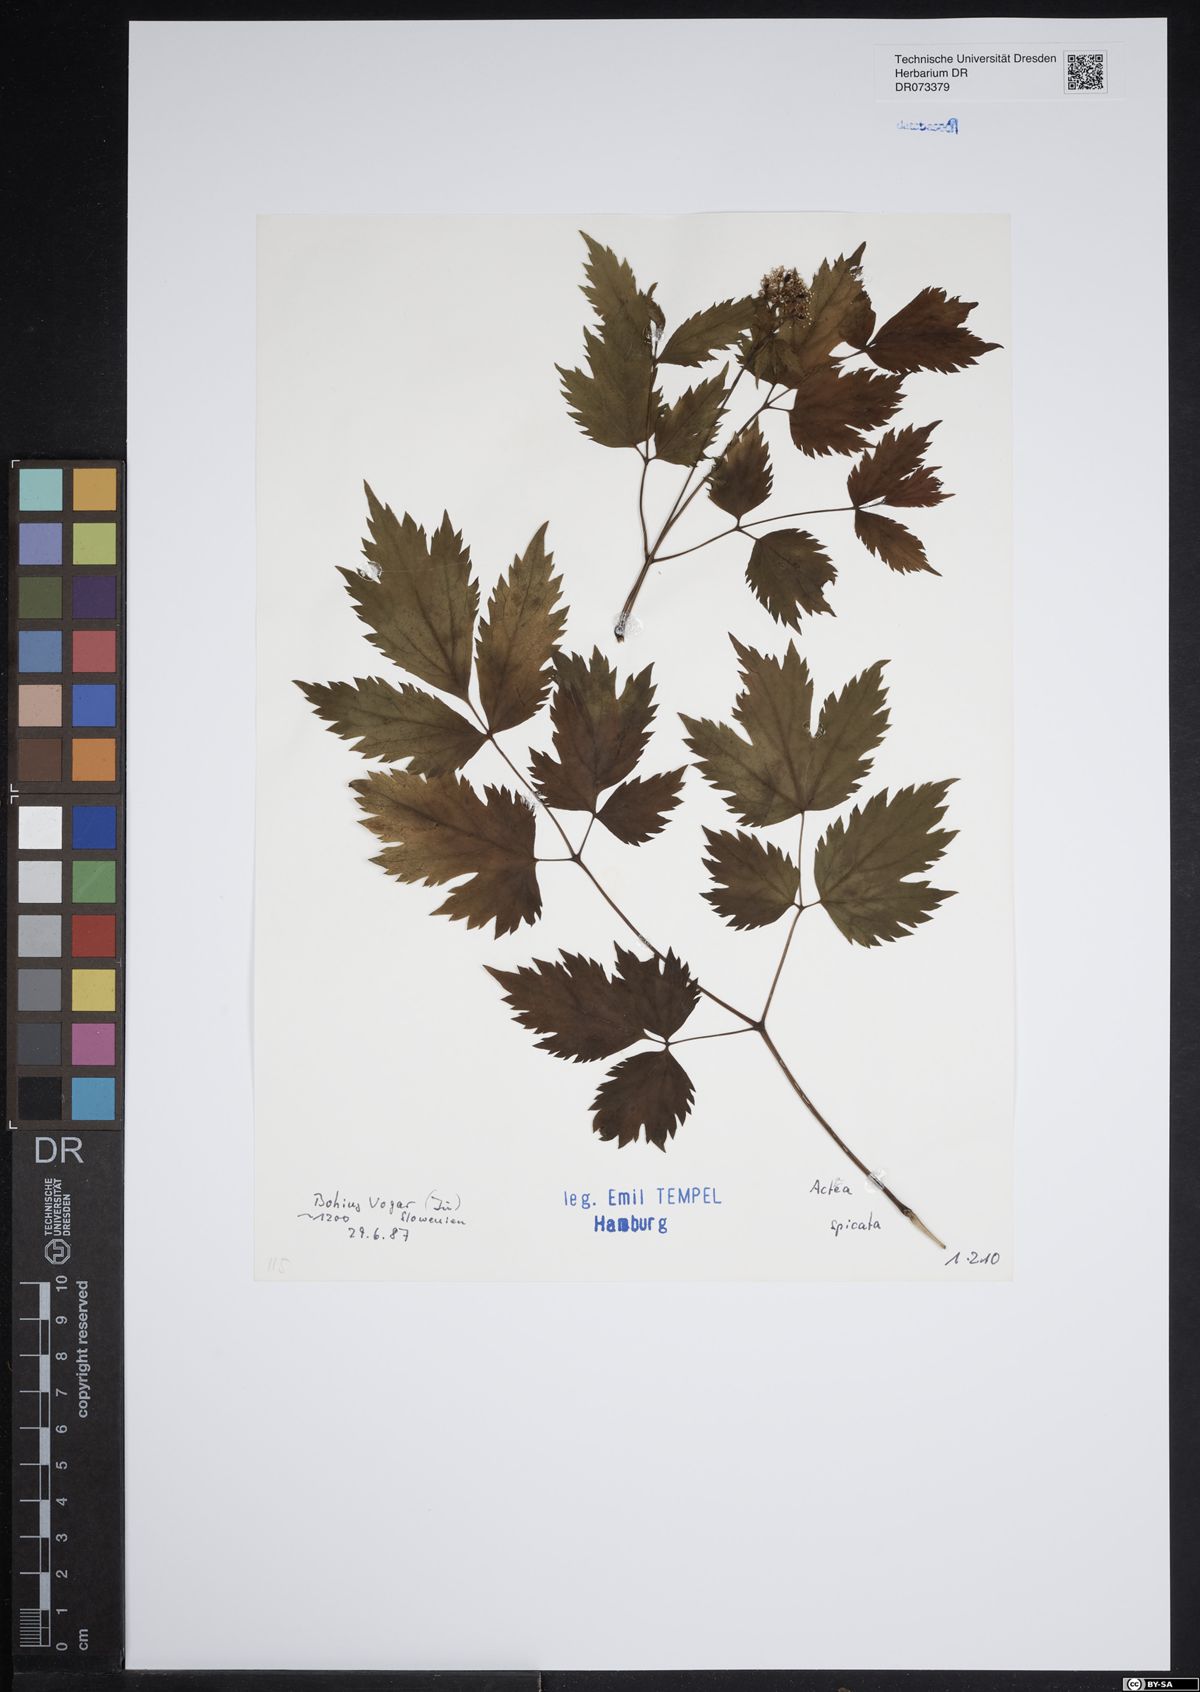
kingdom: Plantae
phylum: Tracheophyta
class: Magnoliopsida
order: Ranunculales
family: Ranunculaceae
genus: Actaea
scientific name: Actaea spicata
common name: Baneberry
